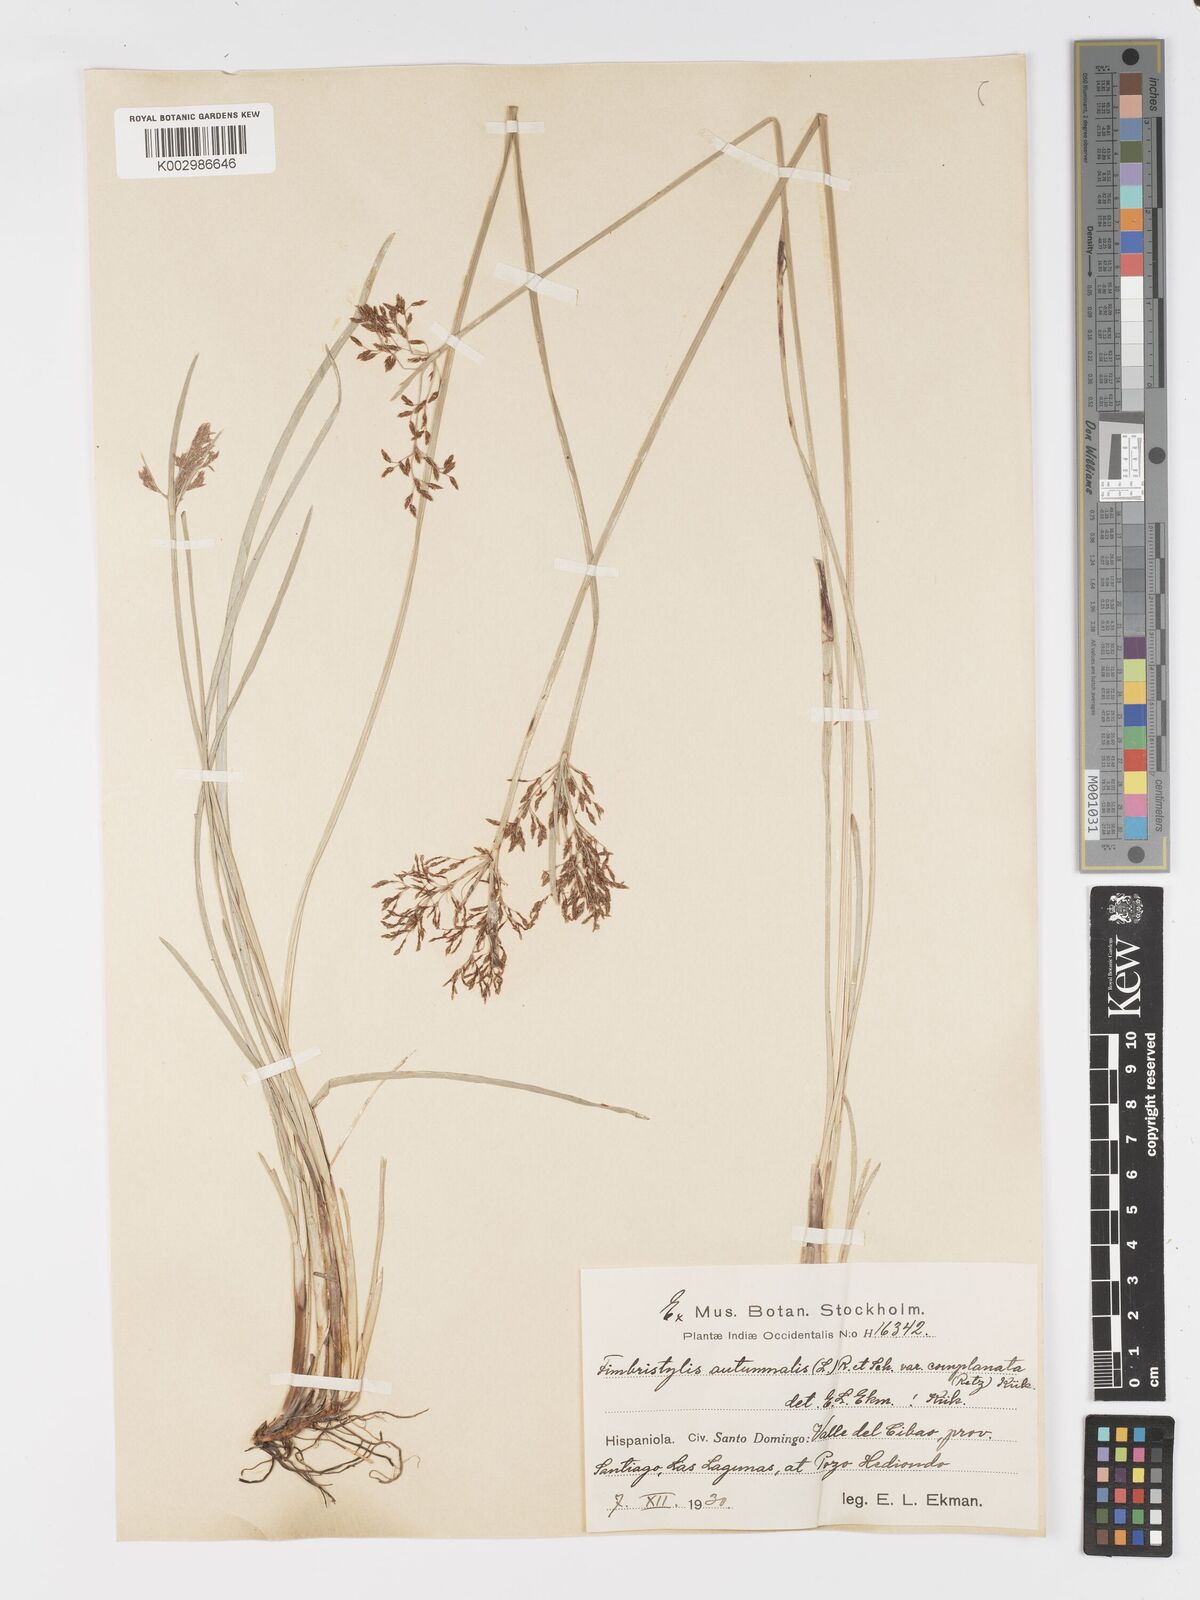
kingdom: Plantae
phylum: Tracheophyta
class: Liliopsida
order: Poales
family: Cyperaceae
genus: Fimbristylis
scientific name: Fimbristylis autumnalis
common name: Slender fimbristylis
